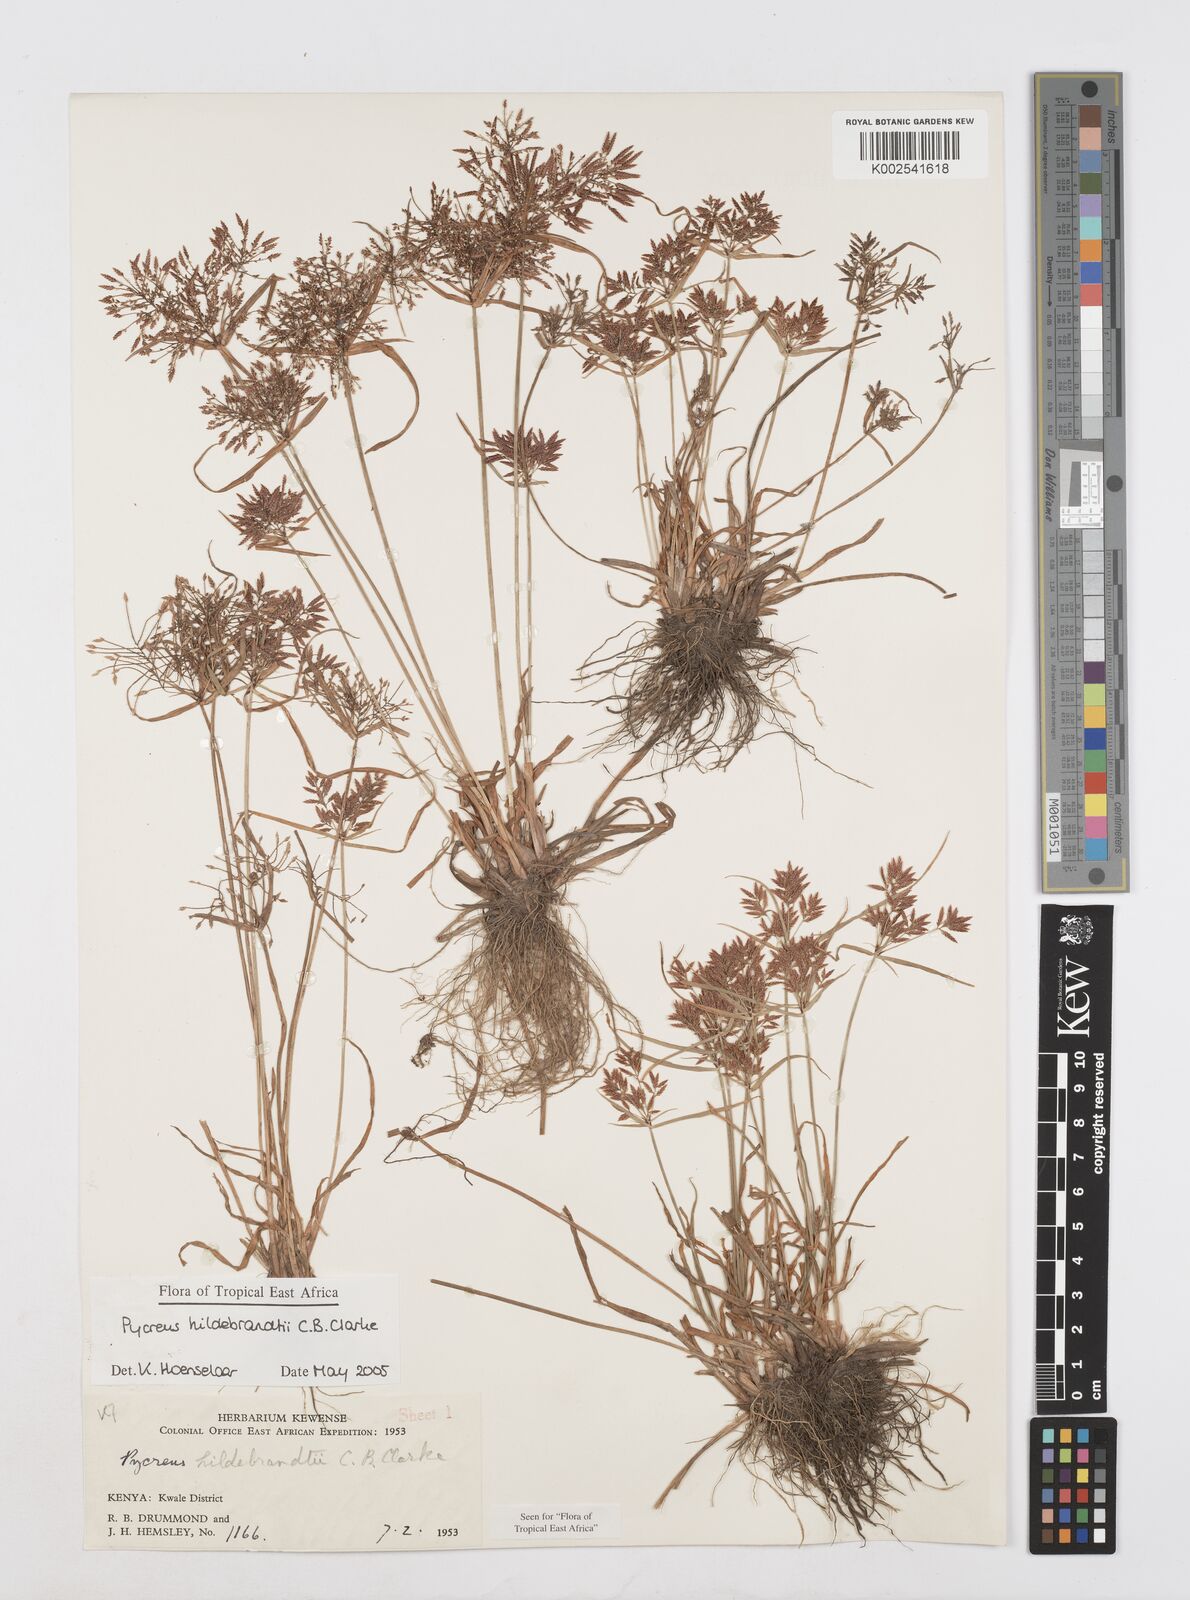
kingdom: Plantae
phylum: Tracheophyta
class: Liliopsida
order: Poales
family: Cyperaceae
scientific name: Cyperaceae
